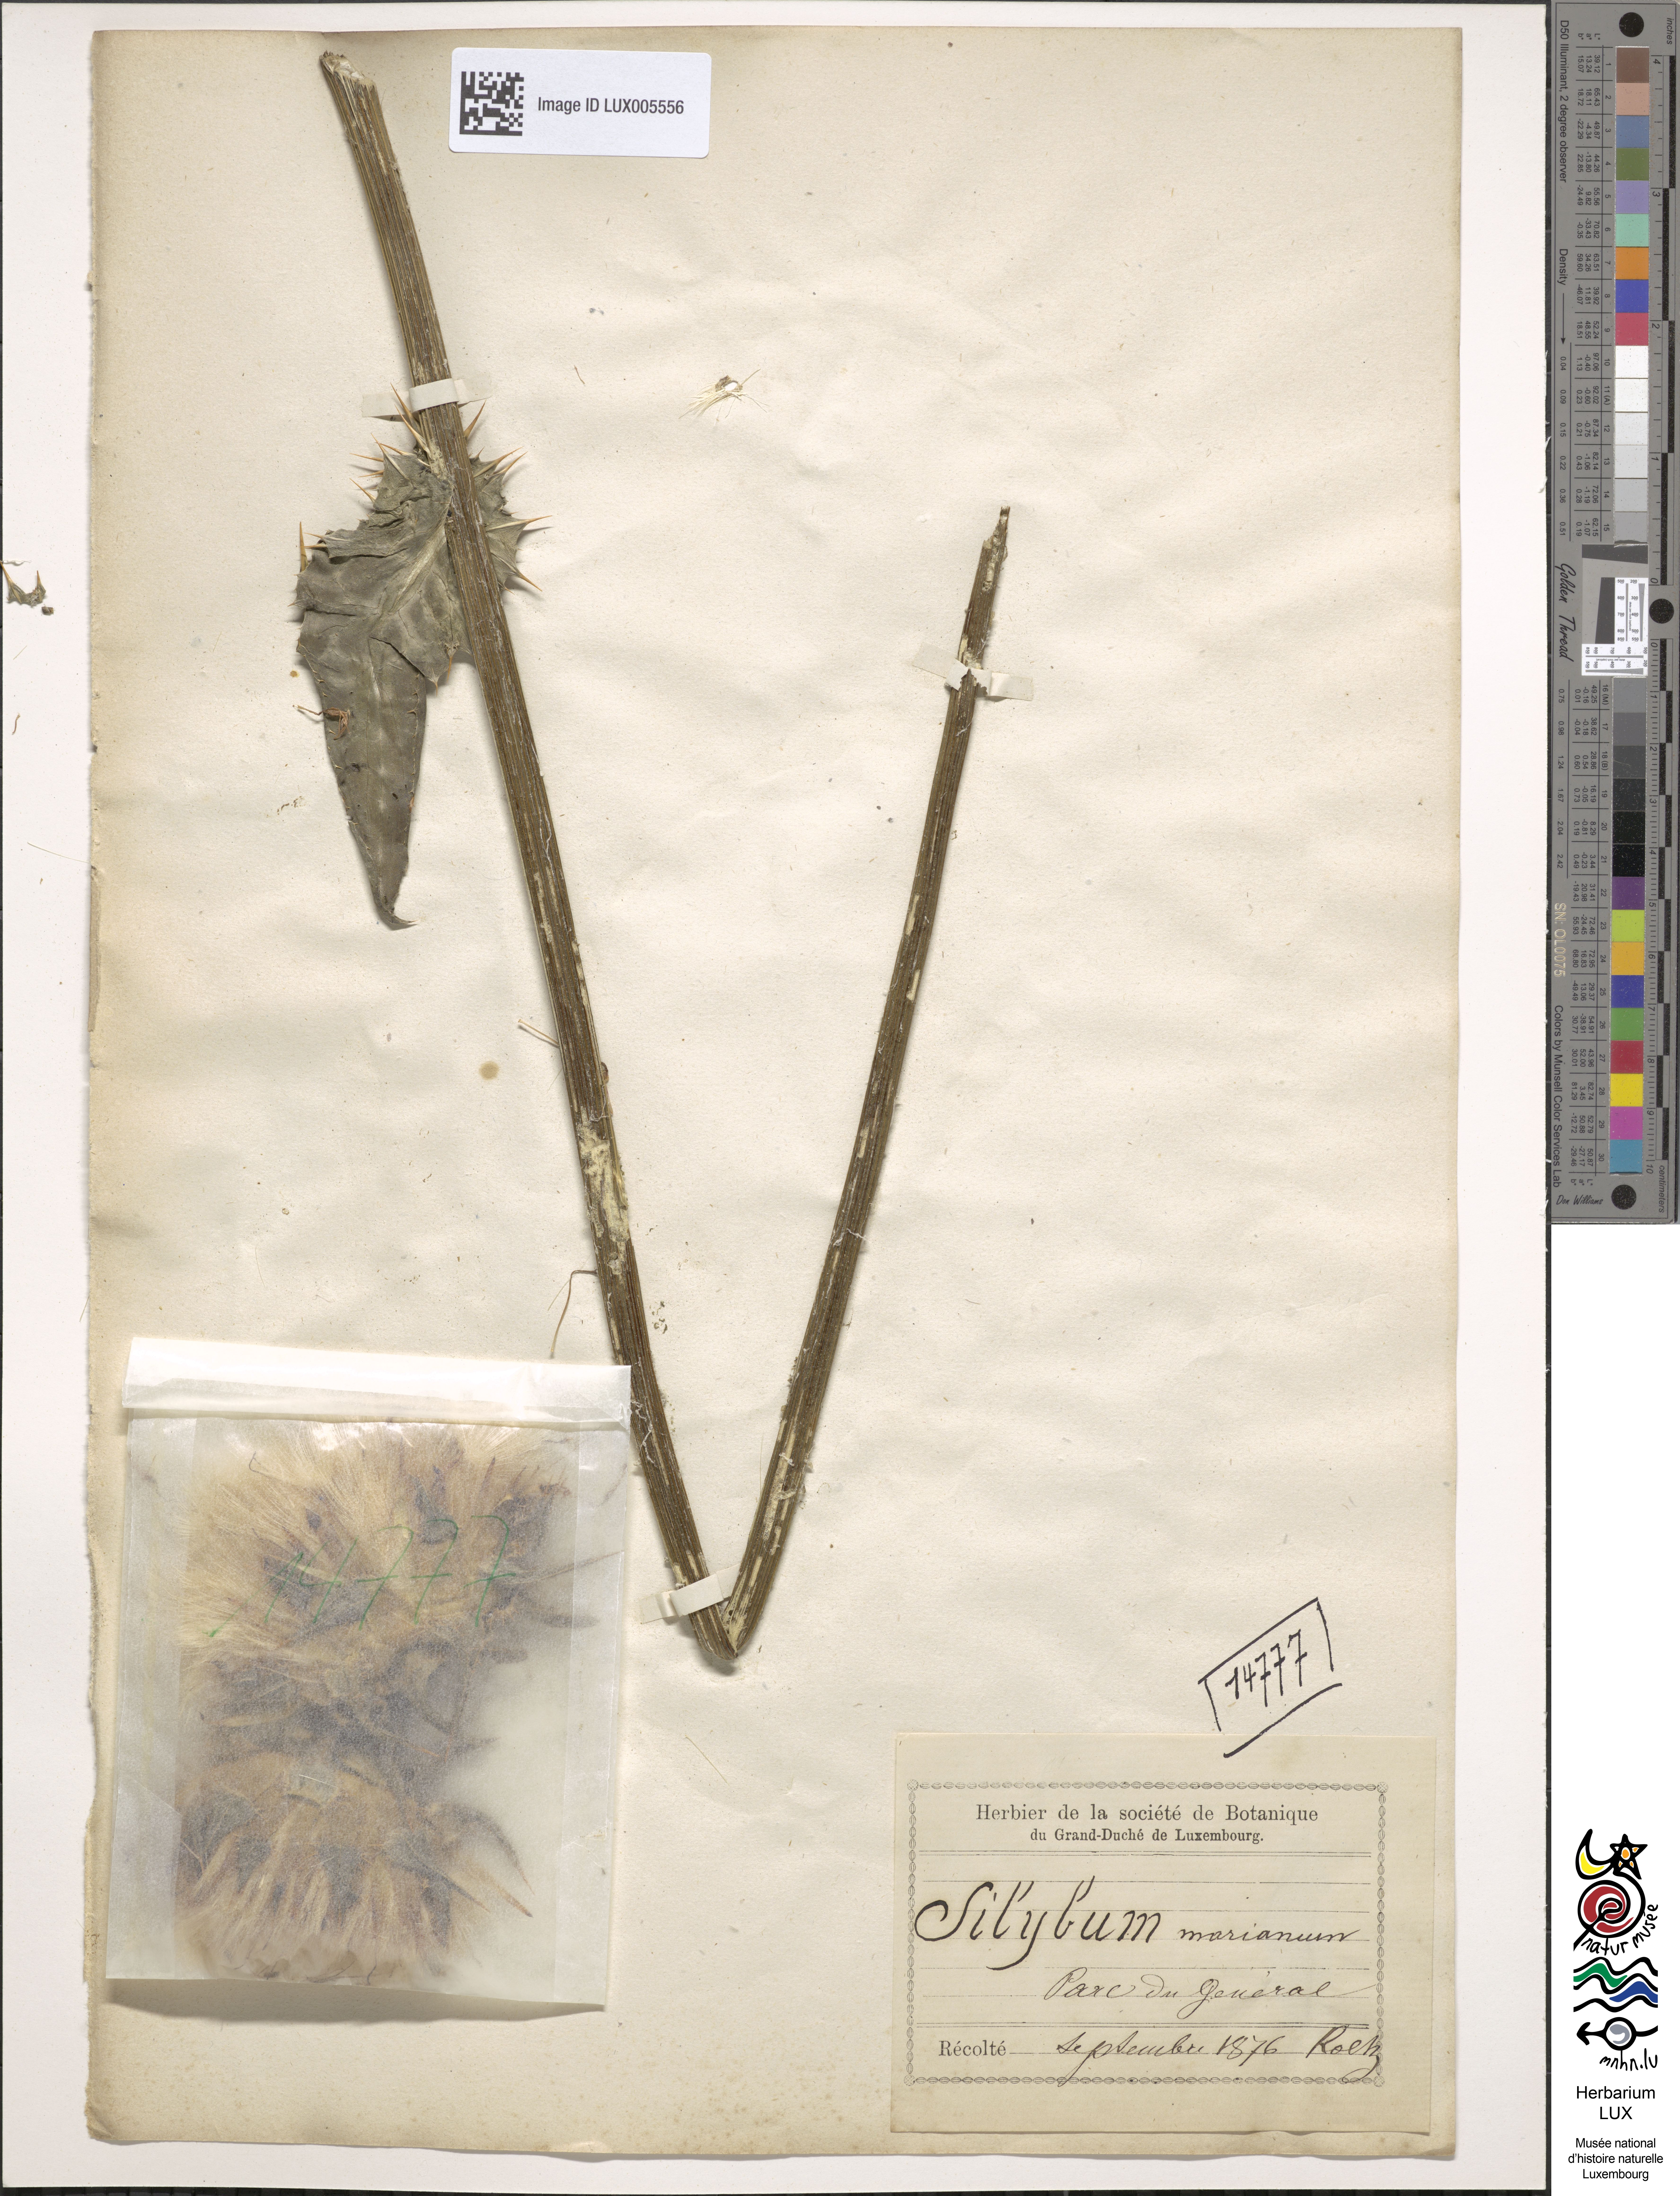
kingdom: Plantae
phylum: Tracheophyta
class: Magnoliopsida
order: Asterales
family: Asteraceae
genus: Silybum
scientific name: Silybum marianum
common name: Milk thistle
